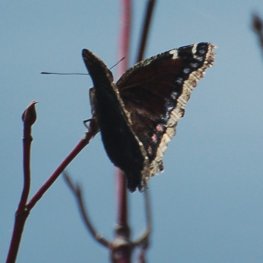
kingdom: Animalia
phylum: Arthropoda
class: Insecta
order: Lepidoptera
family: Nymphalidae
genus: Nymphalis
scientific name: Nymphalis antiopa
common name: Mourning Cloak
